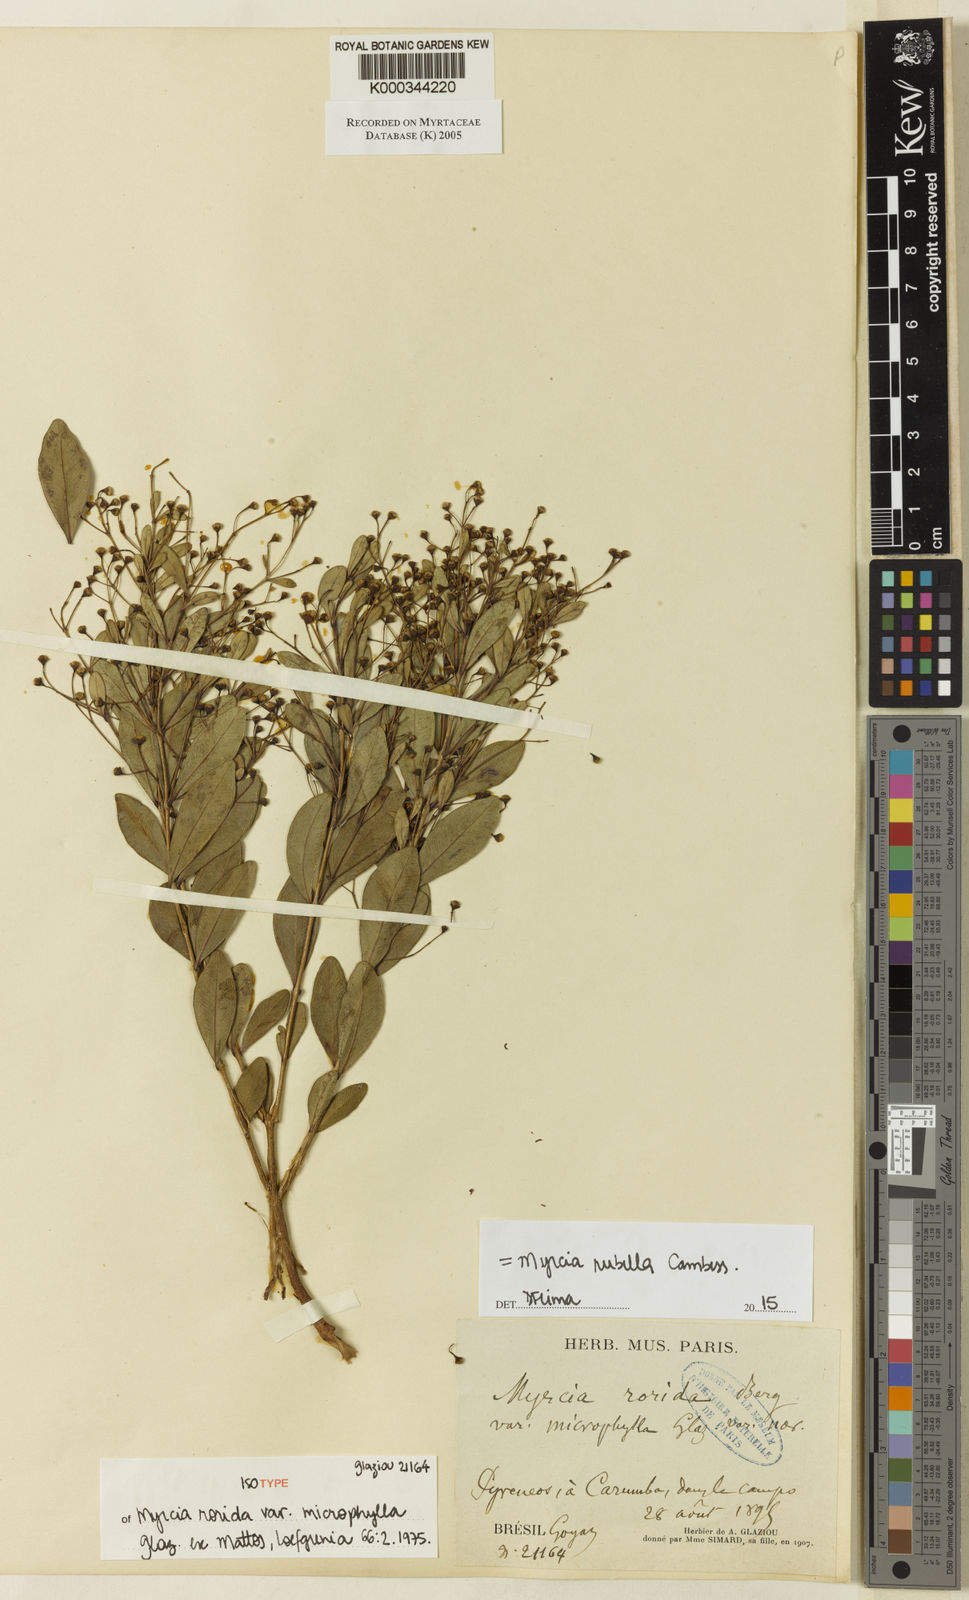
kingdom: Plantae
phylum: Tracheophyta
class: Magnoliopsida
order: Myrtales
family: Myrtaceae
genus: Myrcia
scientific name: Myrcia rubella
